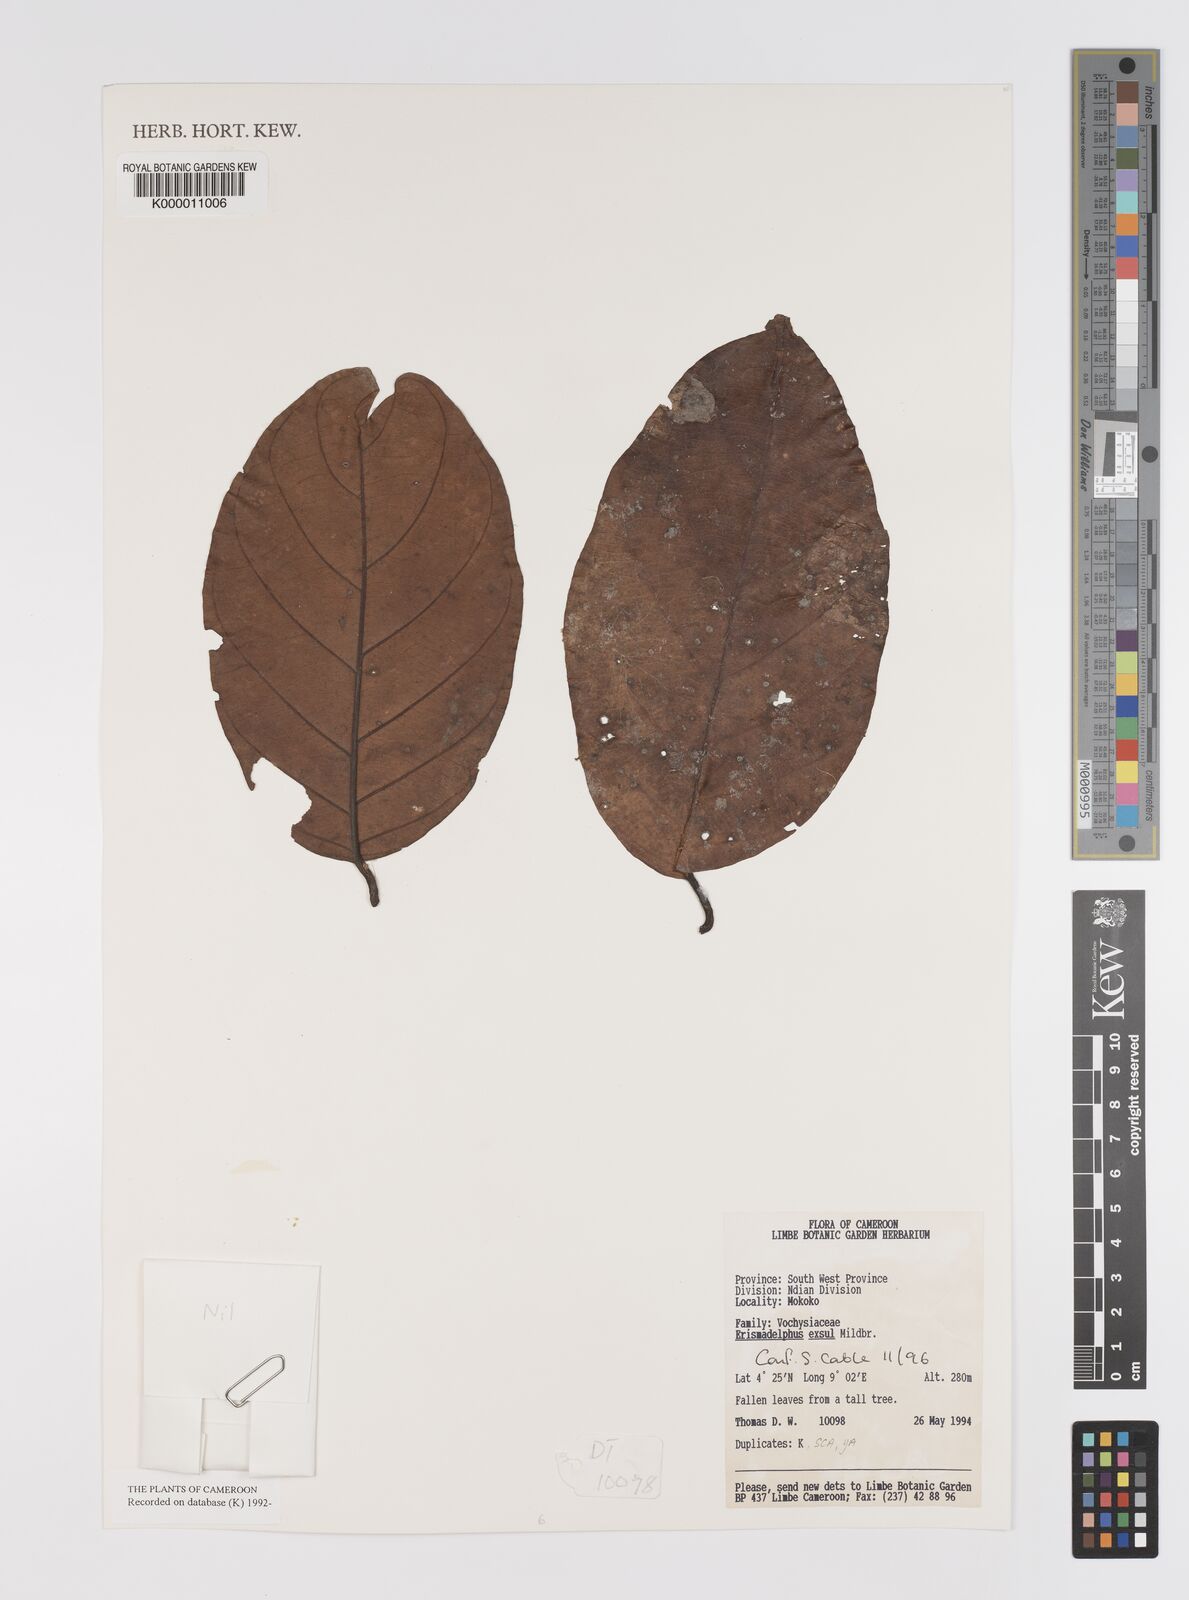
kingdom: Plantae
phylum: Tracheophyta
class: Magnoliopsida
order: Myrtales
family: Vochysiaceae
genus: Erismadelphus
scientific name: Erismadelphus exsul
